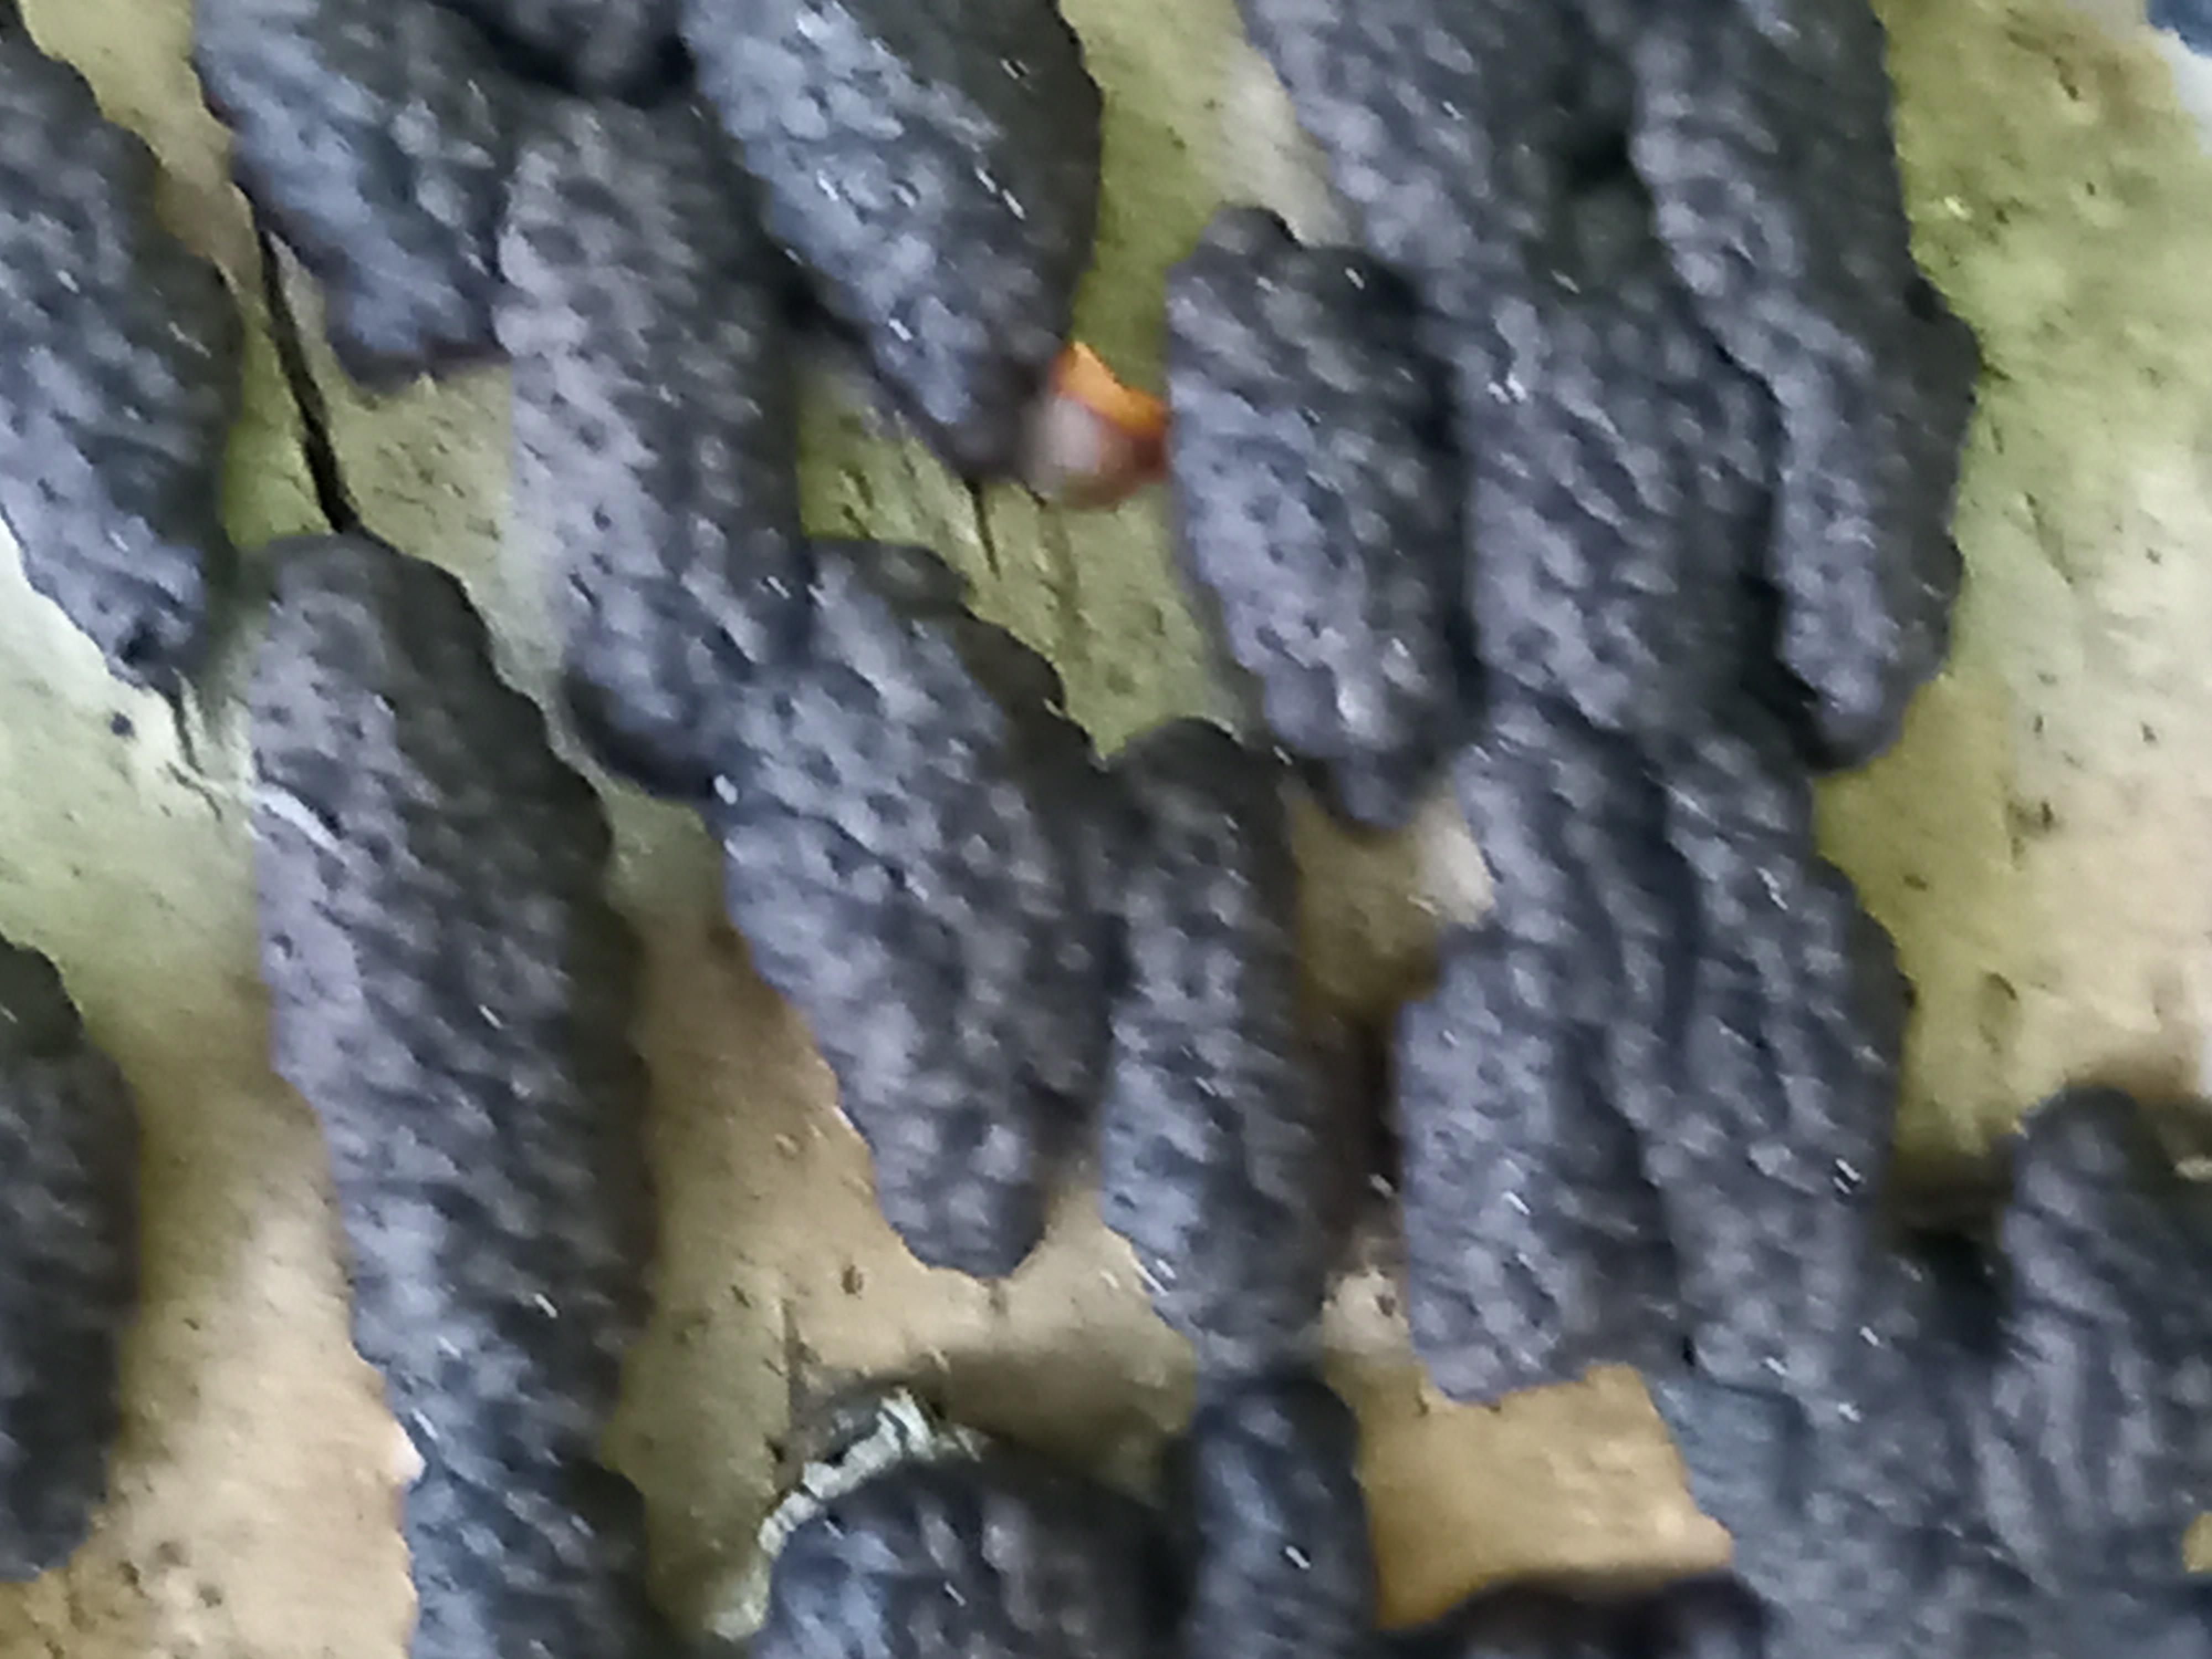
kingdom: Fungi
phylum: Ascomycota
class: Sordariomycetes
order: Xylariales
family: Hypoxylaceae
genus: Jackrogersella
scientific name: Jackrogersella multiformis
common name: foranderlig kulbær
